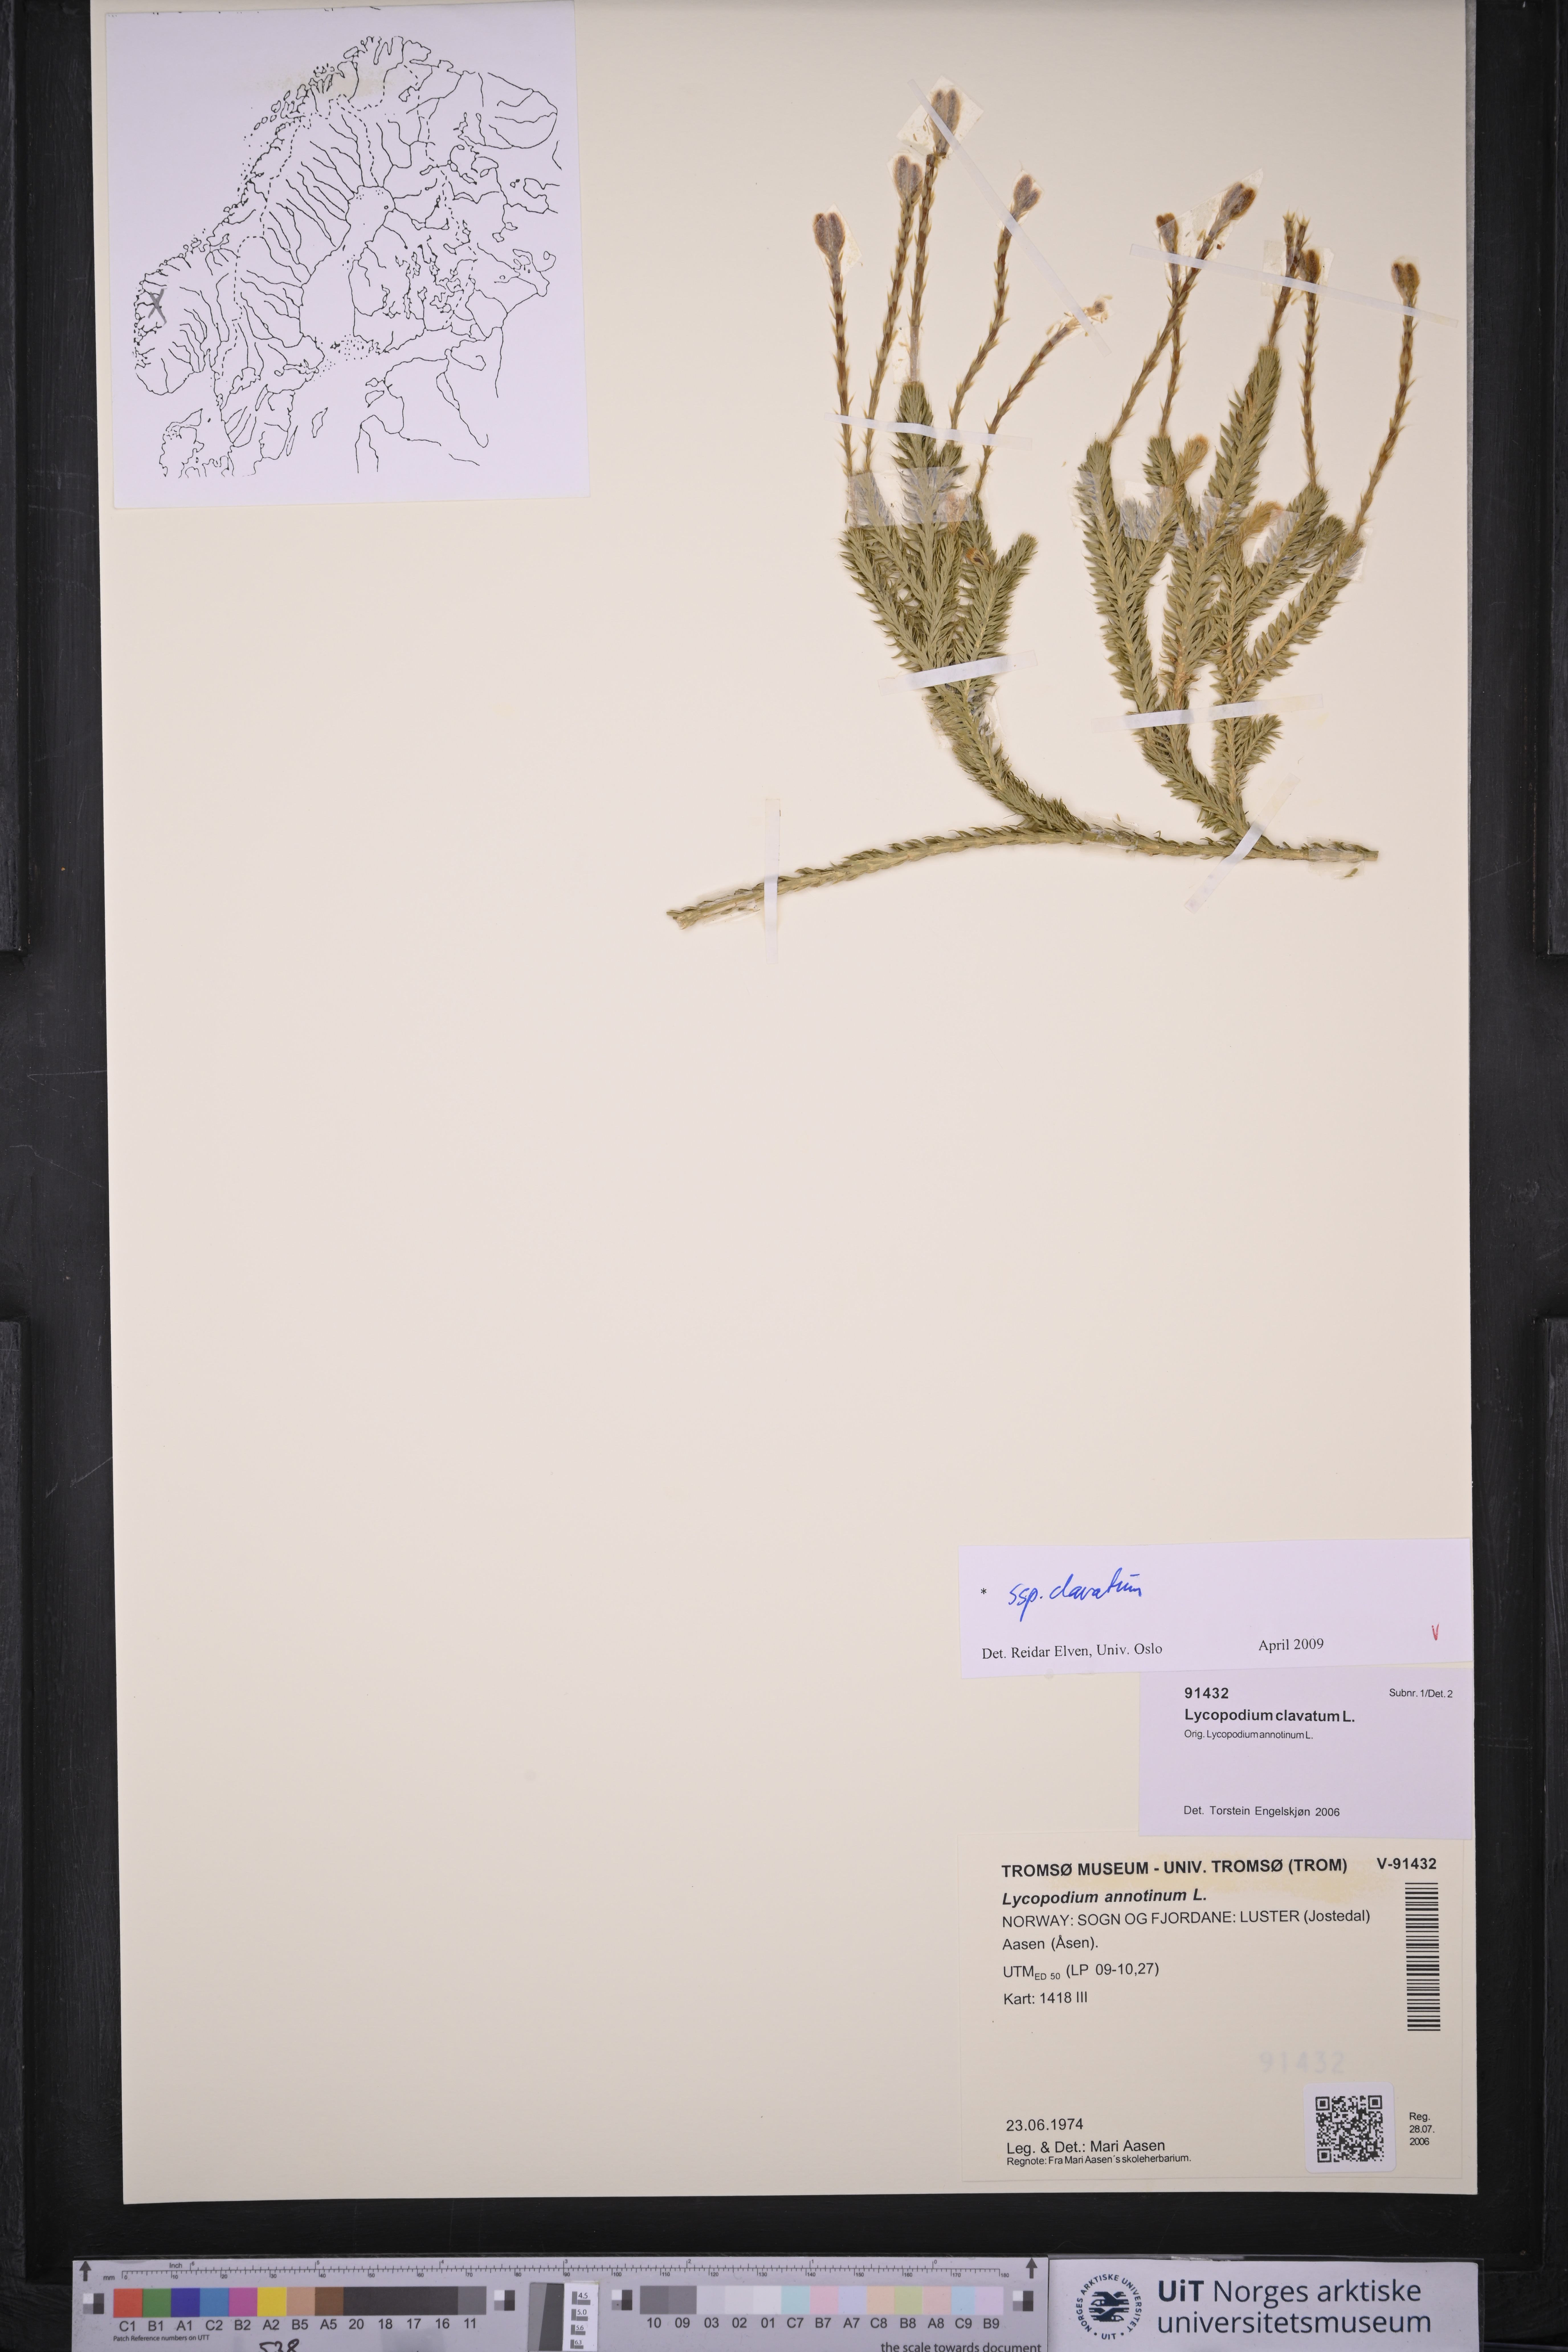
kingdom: Plantae
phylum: Tracheophyta
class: Lycopodiopsida
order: Lycopodiales
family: Lycopodiaceae
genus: Lycopodium
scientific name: Lycopodium clavatum
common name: Stag's-horn clubmoss
